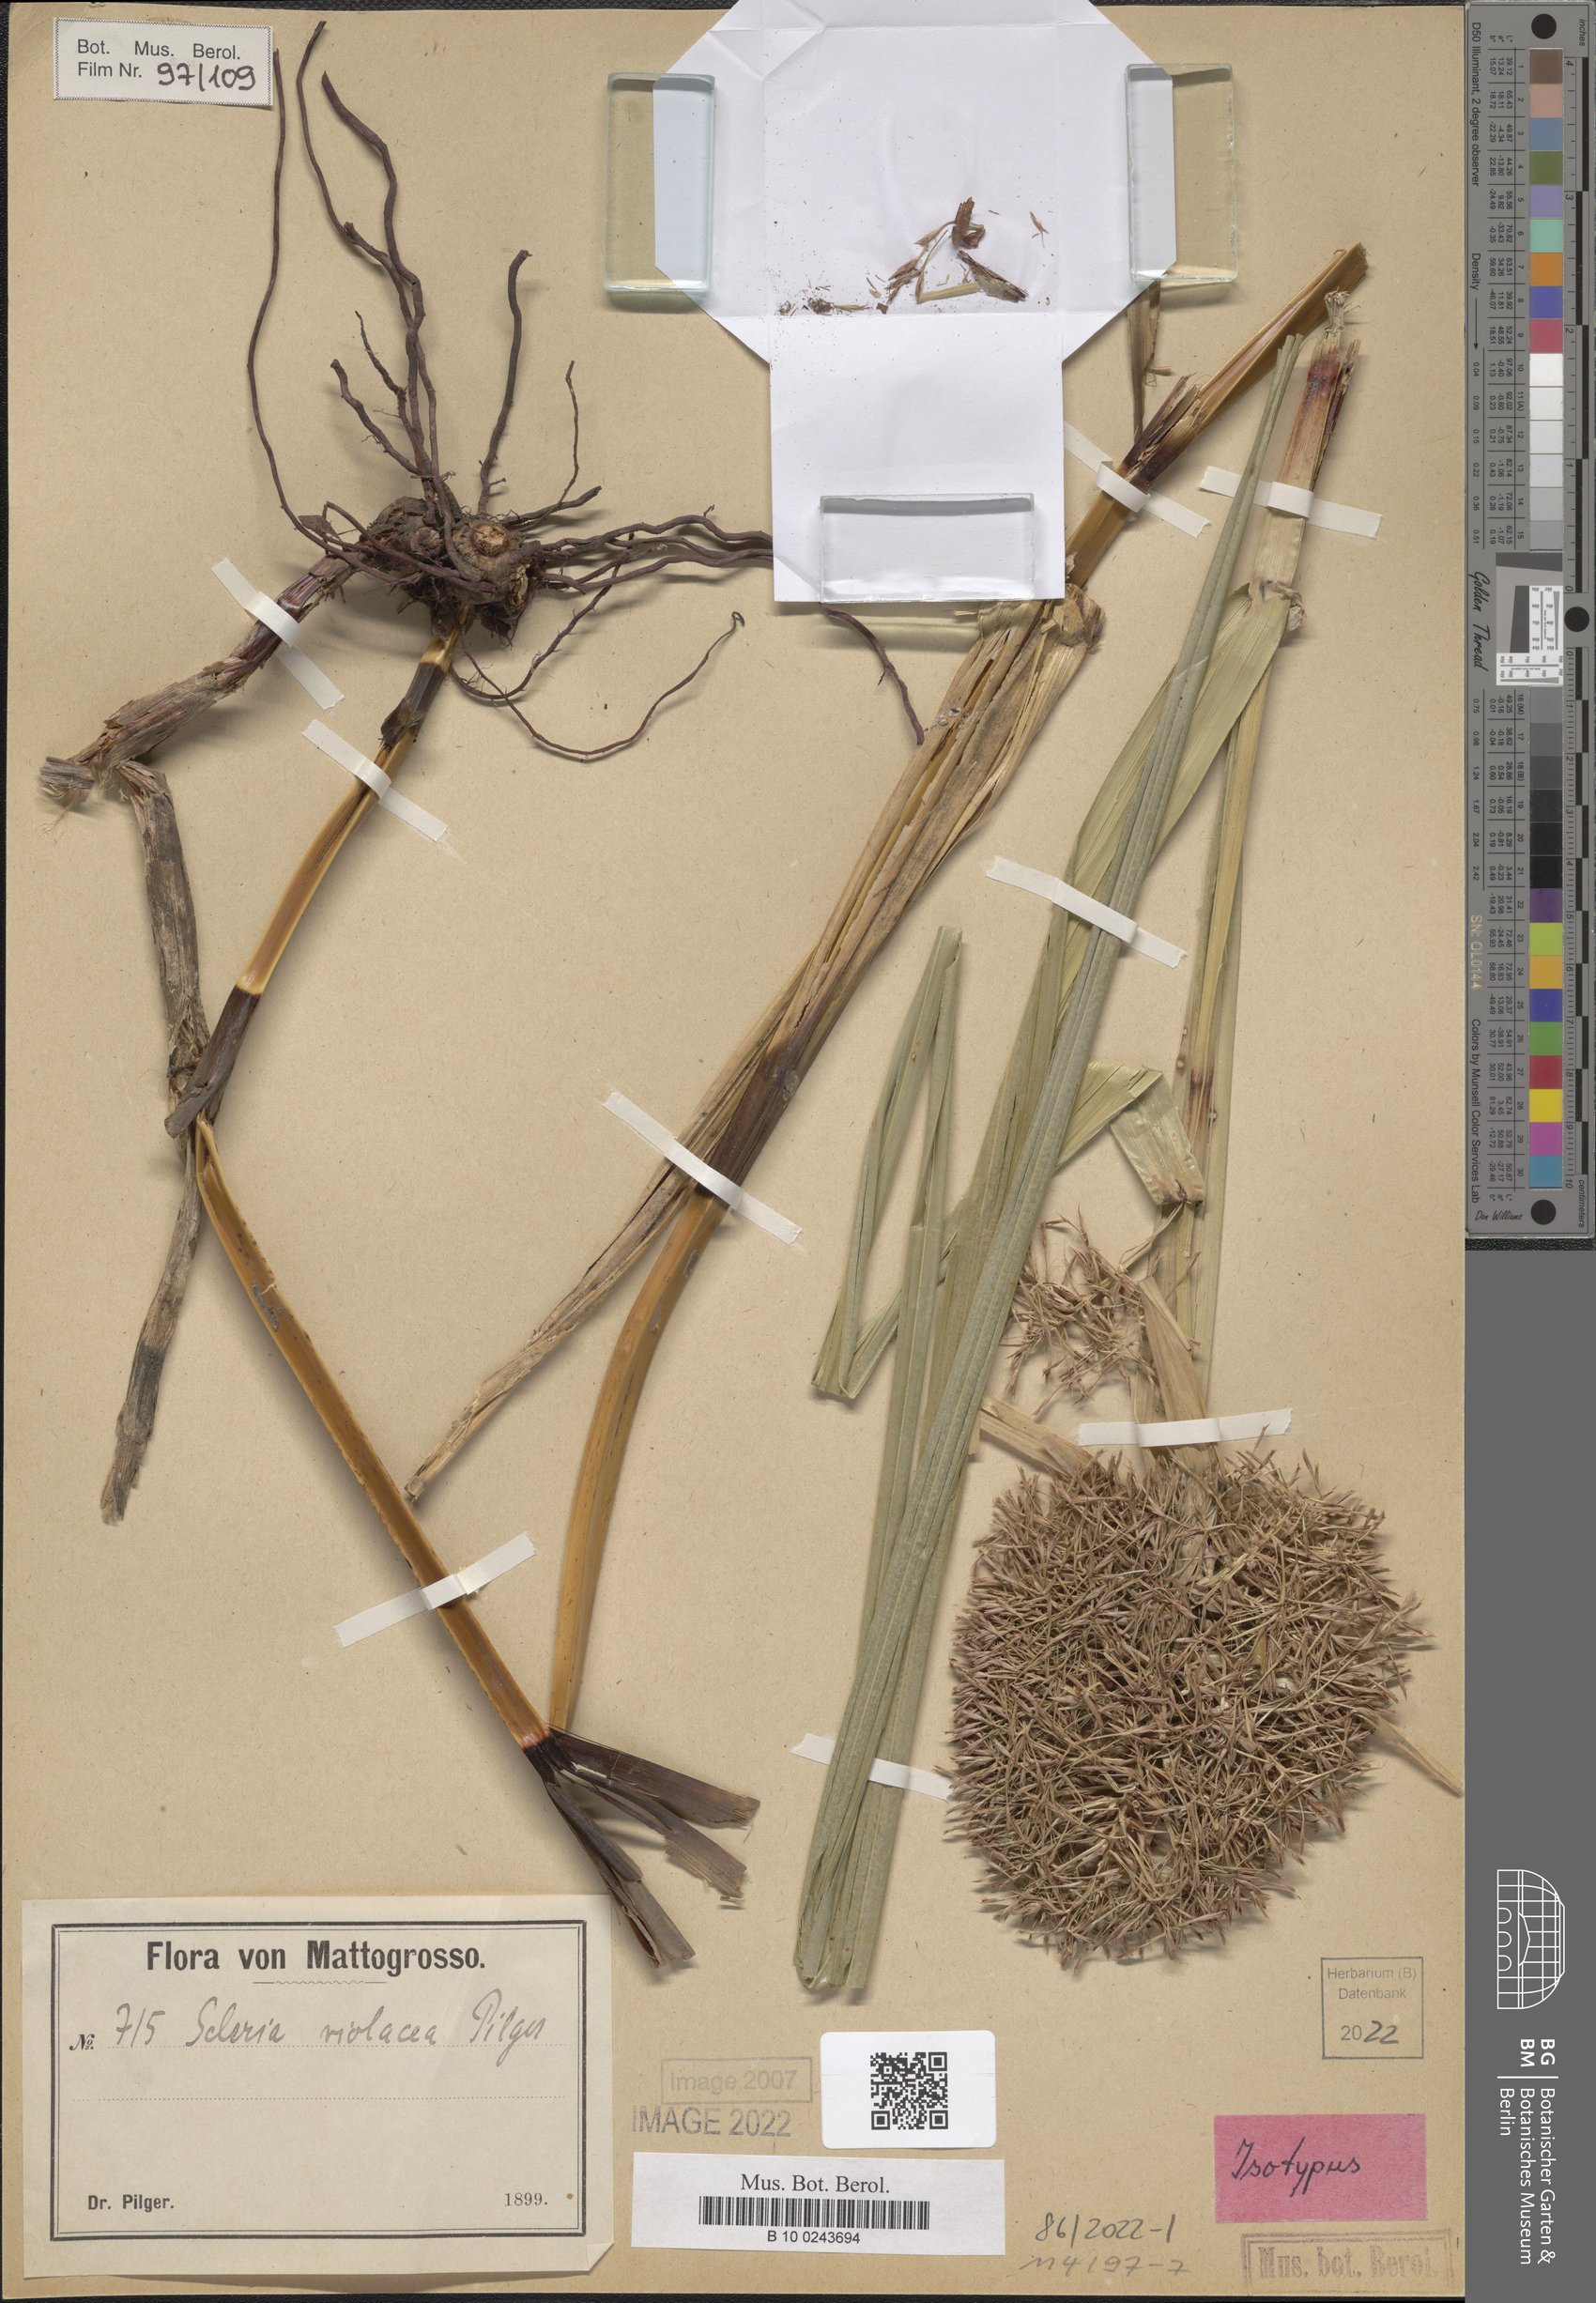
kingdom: Plantae
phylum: Tracheophyta
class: Liliopsida
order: Poales
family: Cyperaceae
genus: Scleria
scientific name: Scleria violacea
